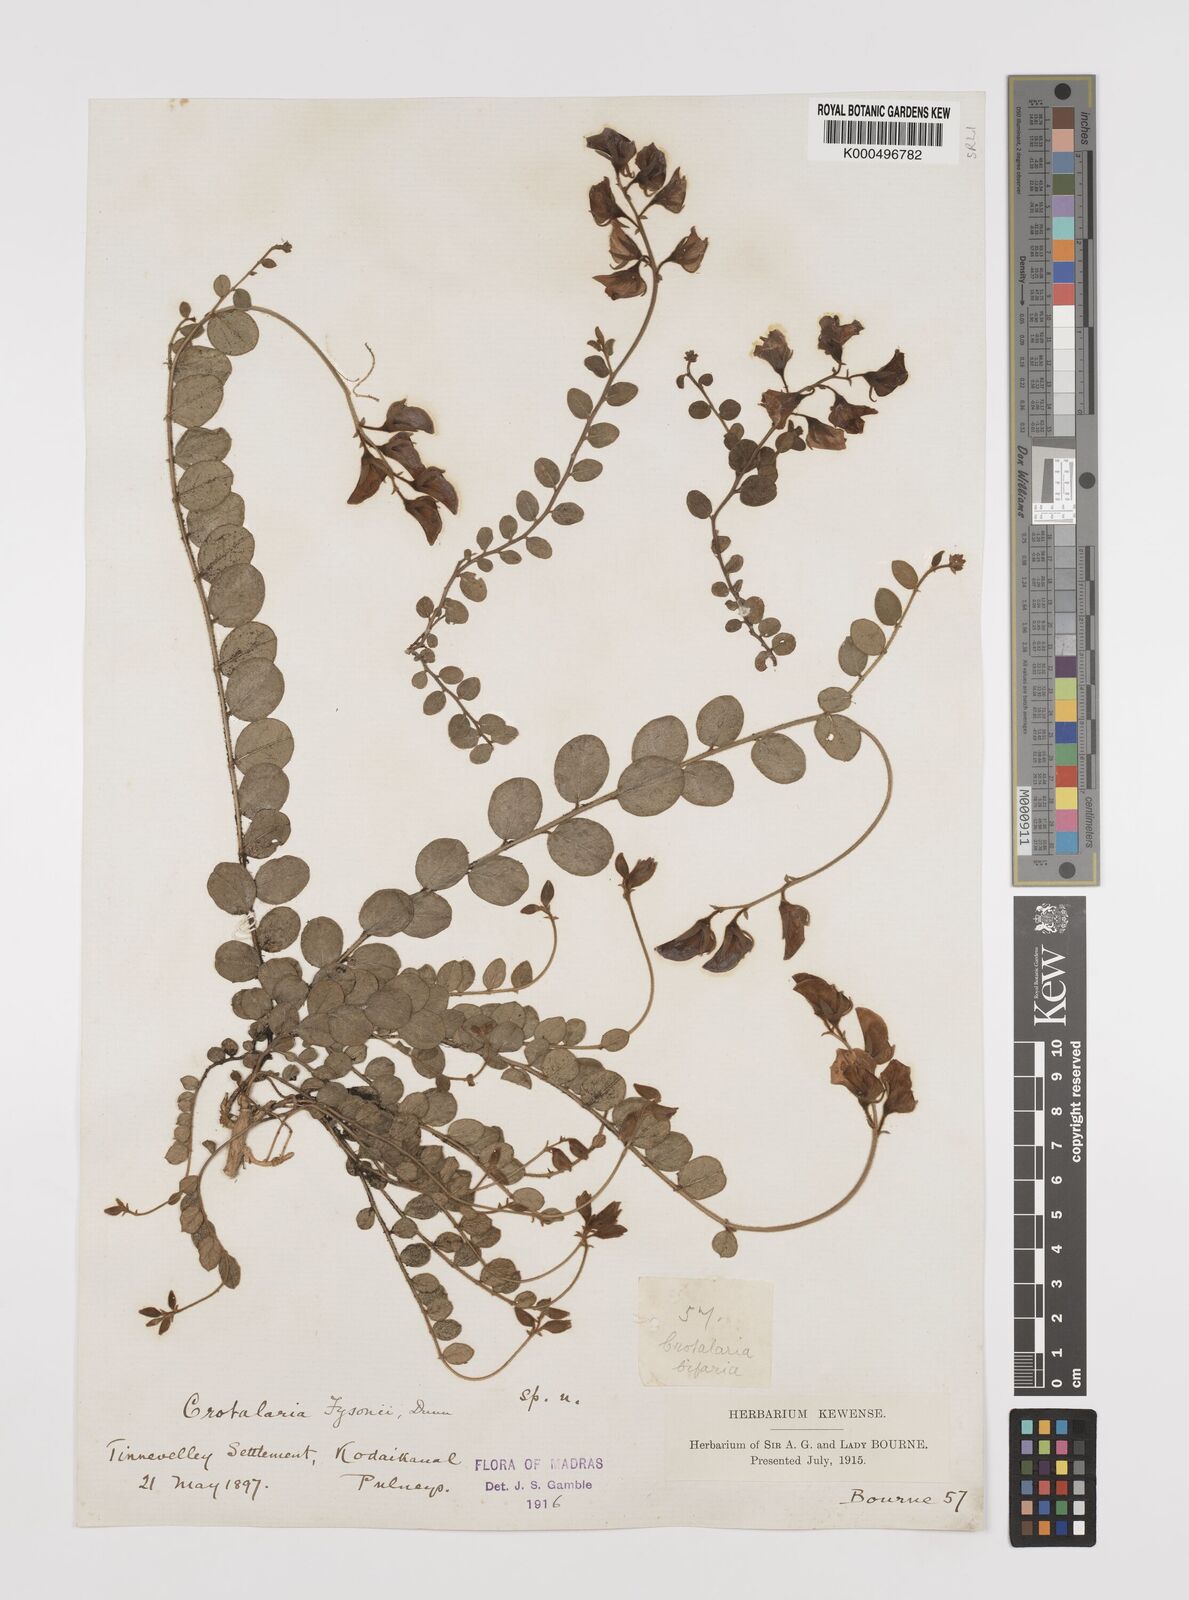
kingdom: Plantae
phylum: Tracheophyta
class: Magnoliopsida
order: Fabales
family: Fabaceae
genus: Crotalaria
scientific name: Crotalaria fysonii
